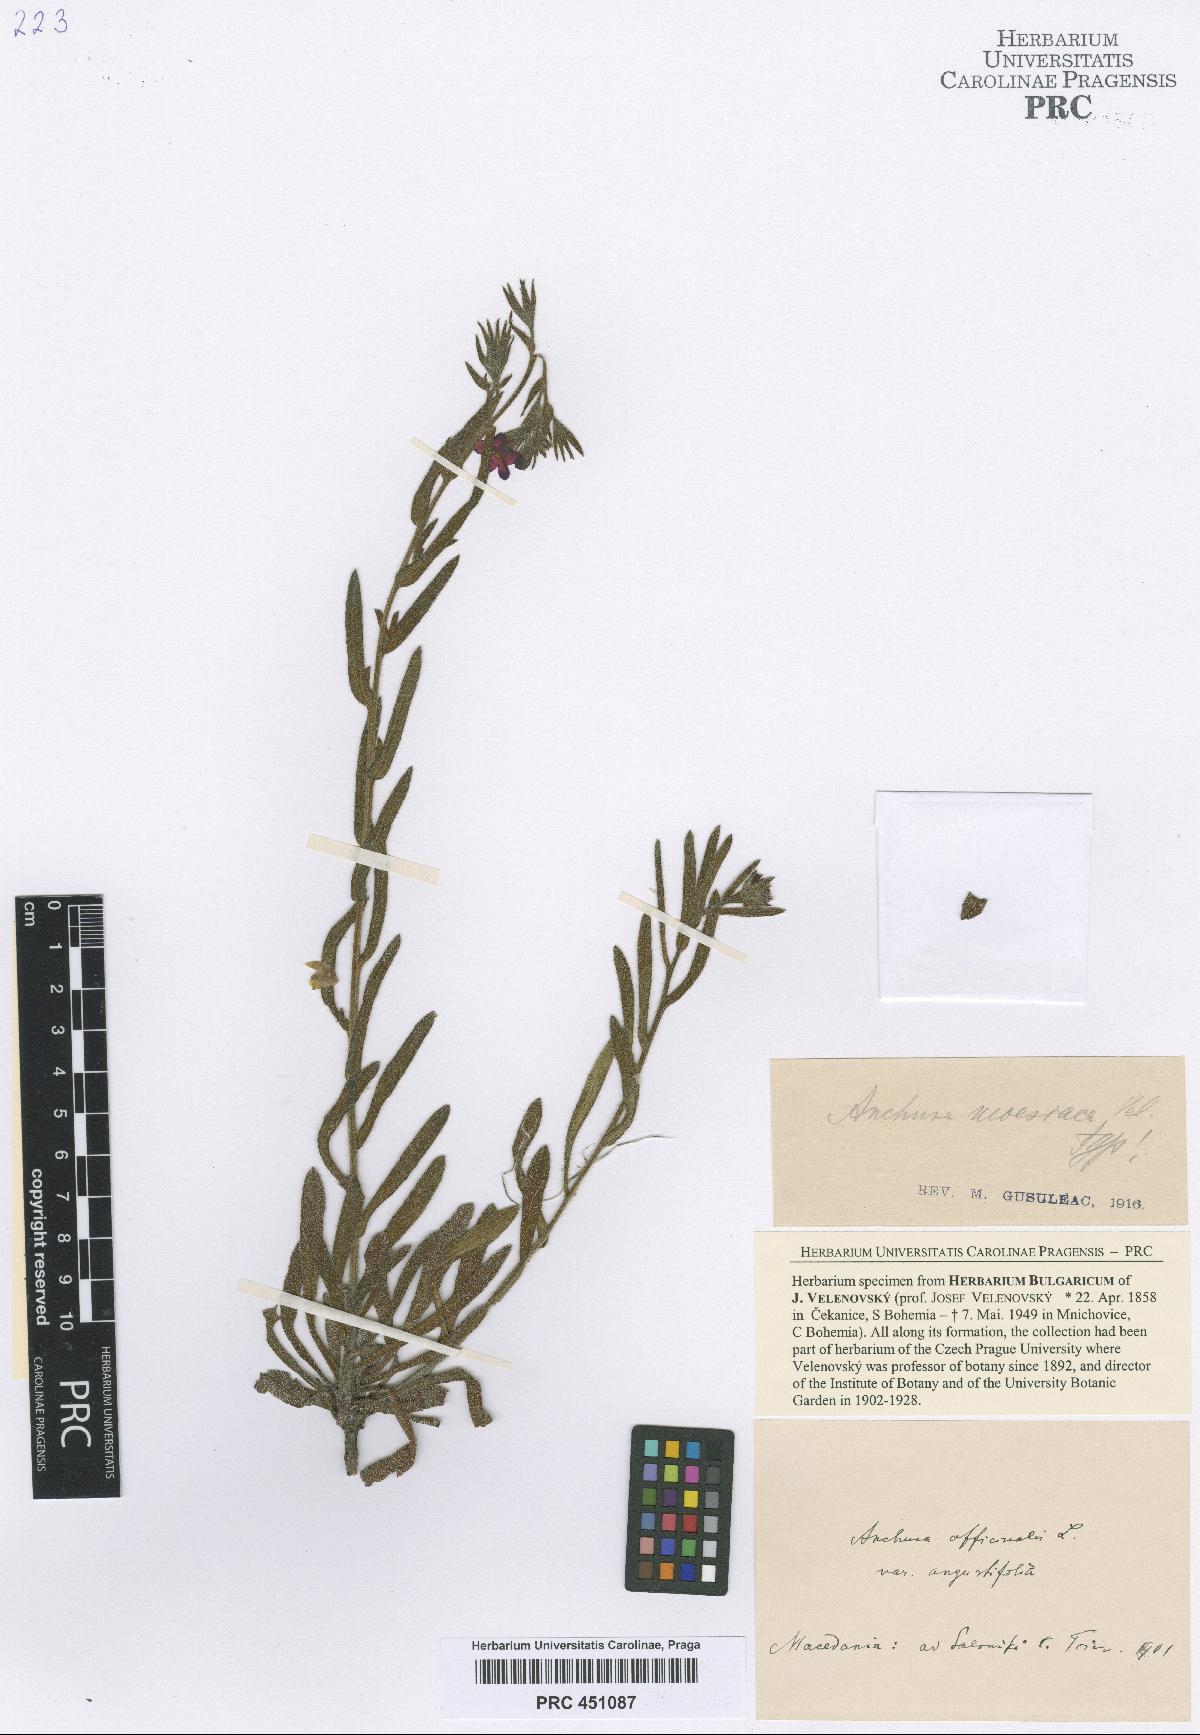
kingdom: Plantae
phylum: Tracheophyta
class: Magnoliopsida
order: Boraginales
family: Boraginaceae
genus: Anchusa
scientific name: Anchusa officinalis
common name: Alkanet
